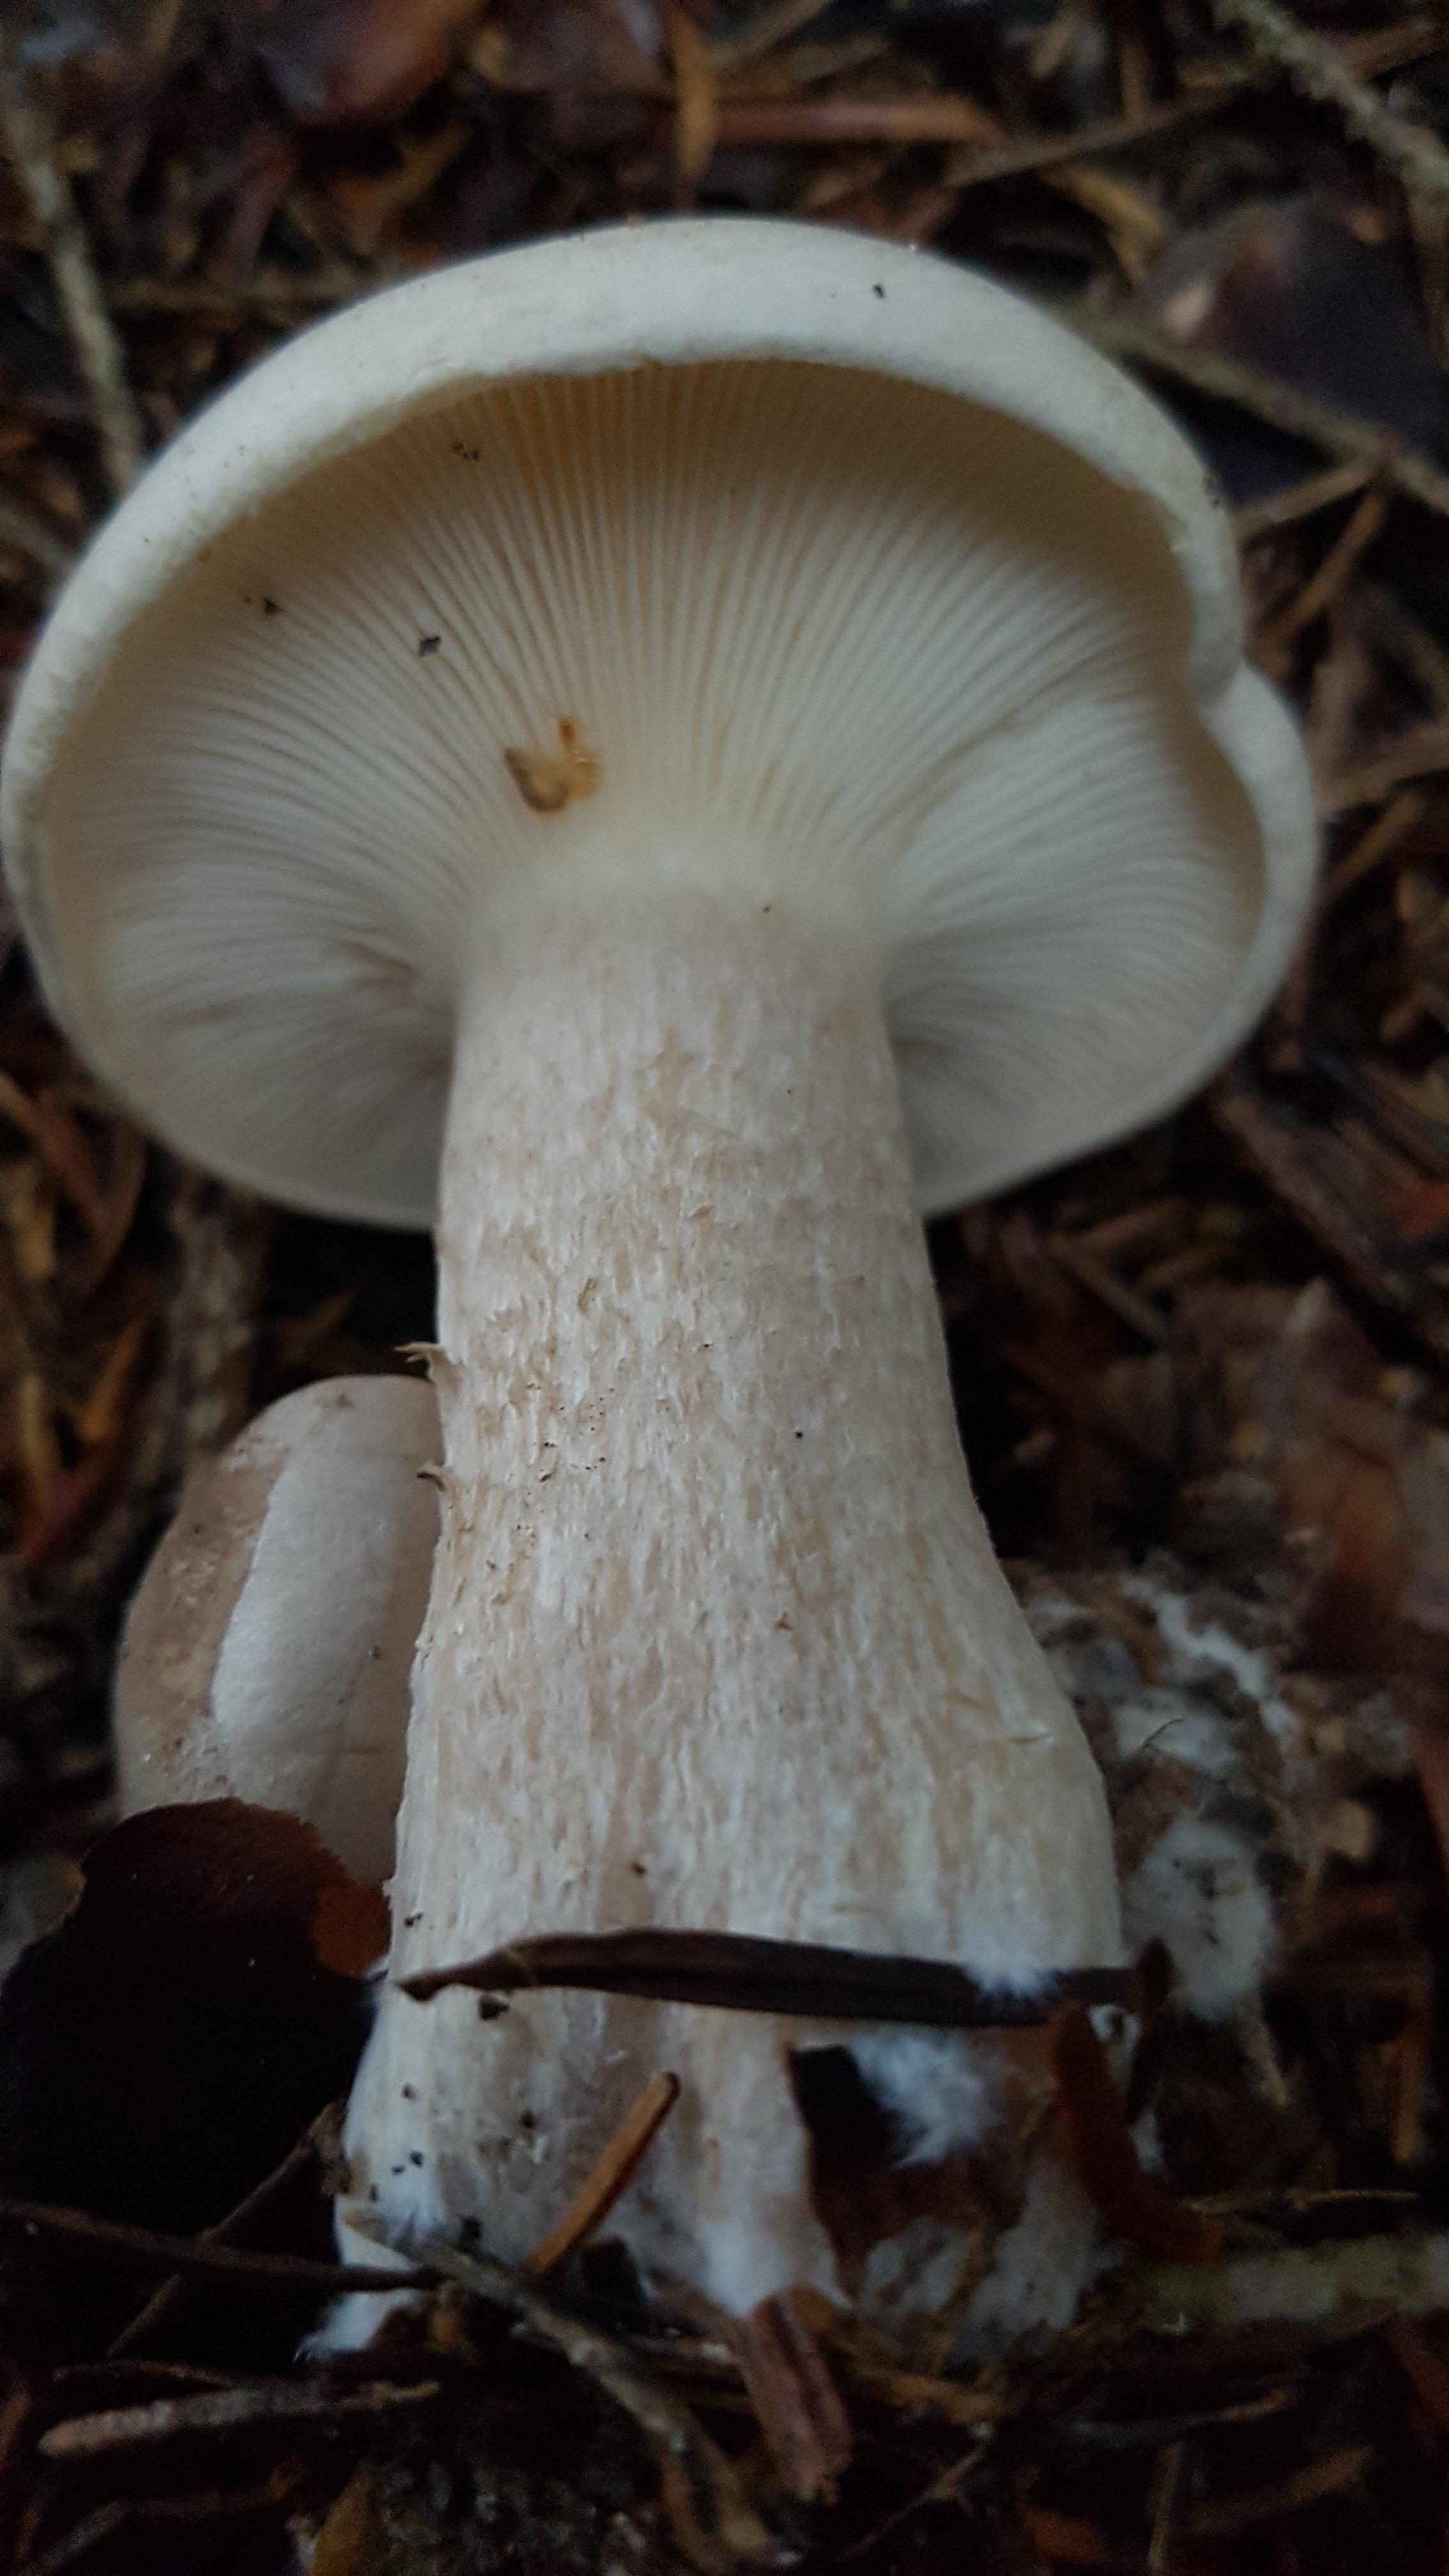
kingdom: Fungi
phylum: Basidiomycota
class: Agaricomycetes
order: Agaricales
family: Tricholomataceae
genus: Clitocybe
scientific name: Clitocybe nebularis
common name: tåge-tragthat
